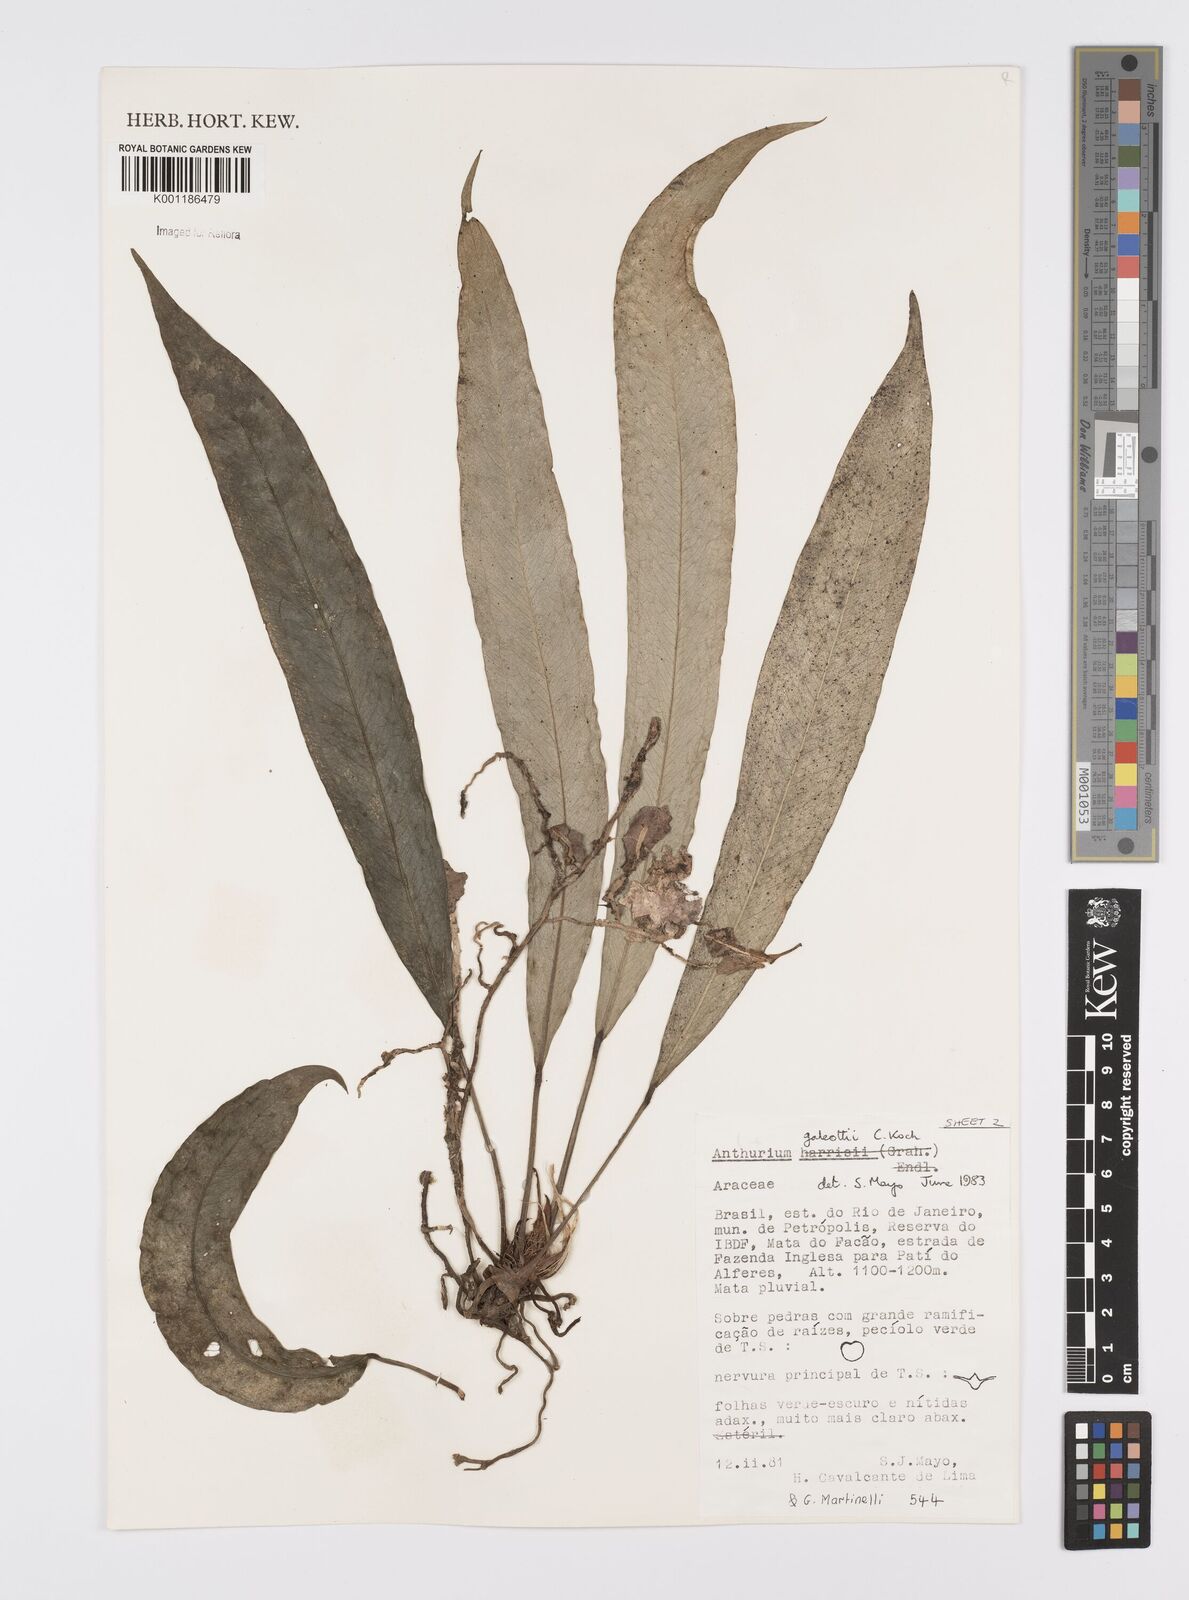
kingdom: Plantae
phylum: Tracheophyta
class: Liliopsida
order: Alismatales
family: Araceae
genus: Anthurium
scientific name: Anthurium galeottii
